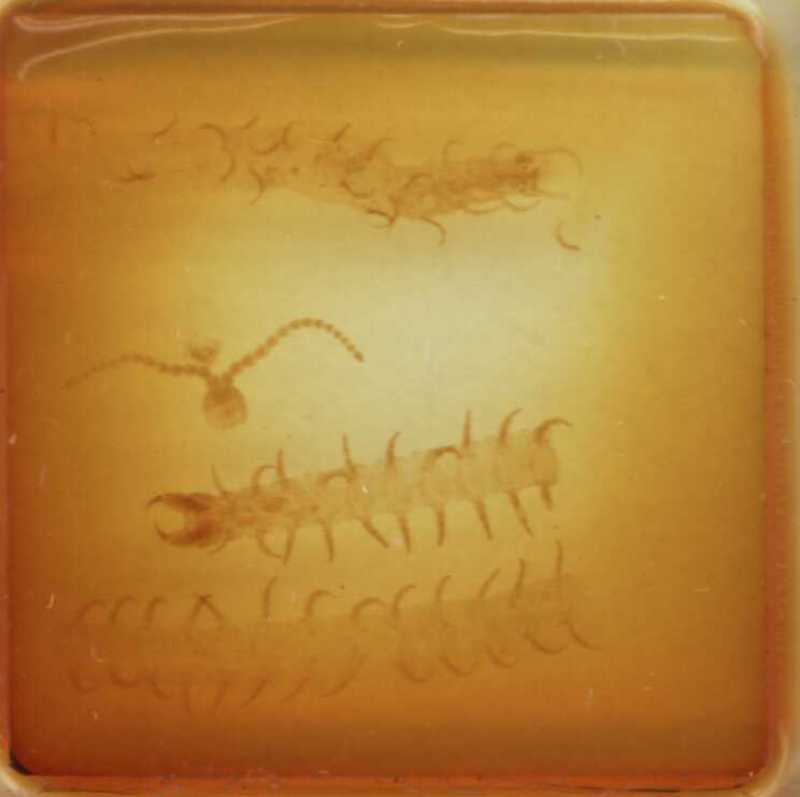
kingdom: Animalia
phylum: Arthropoda
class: Chilopoda
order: Geophilomorpha
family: Geophilidae
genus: Geophilus
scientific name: Geophilus insculptus
